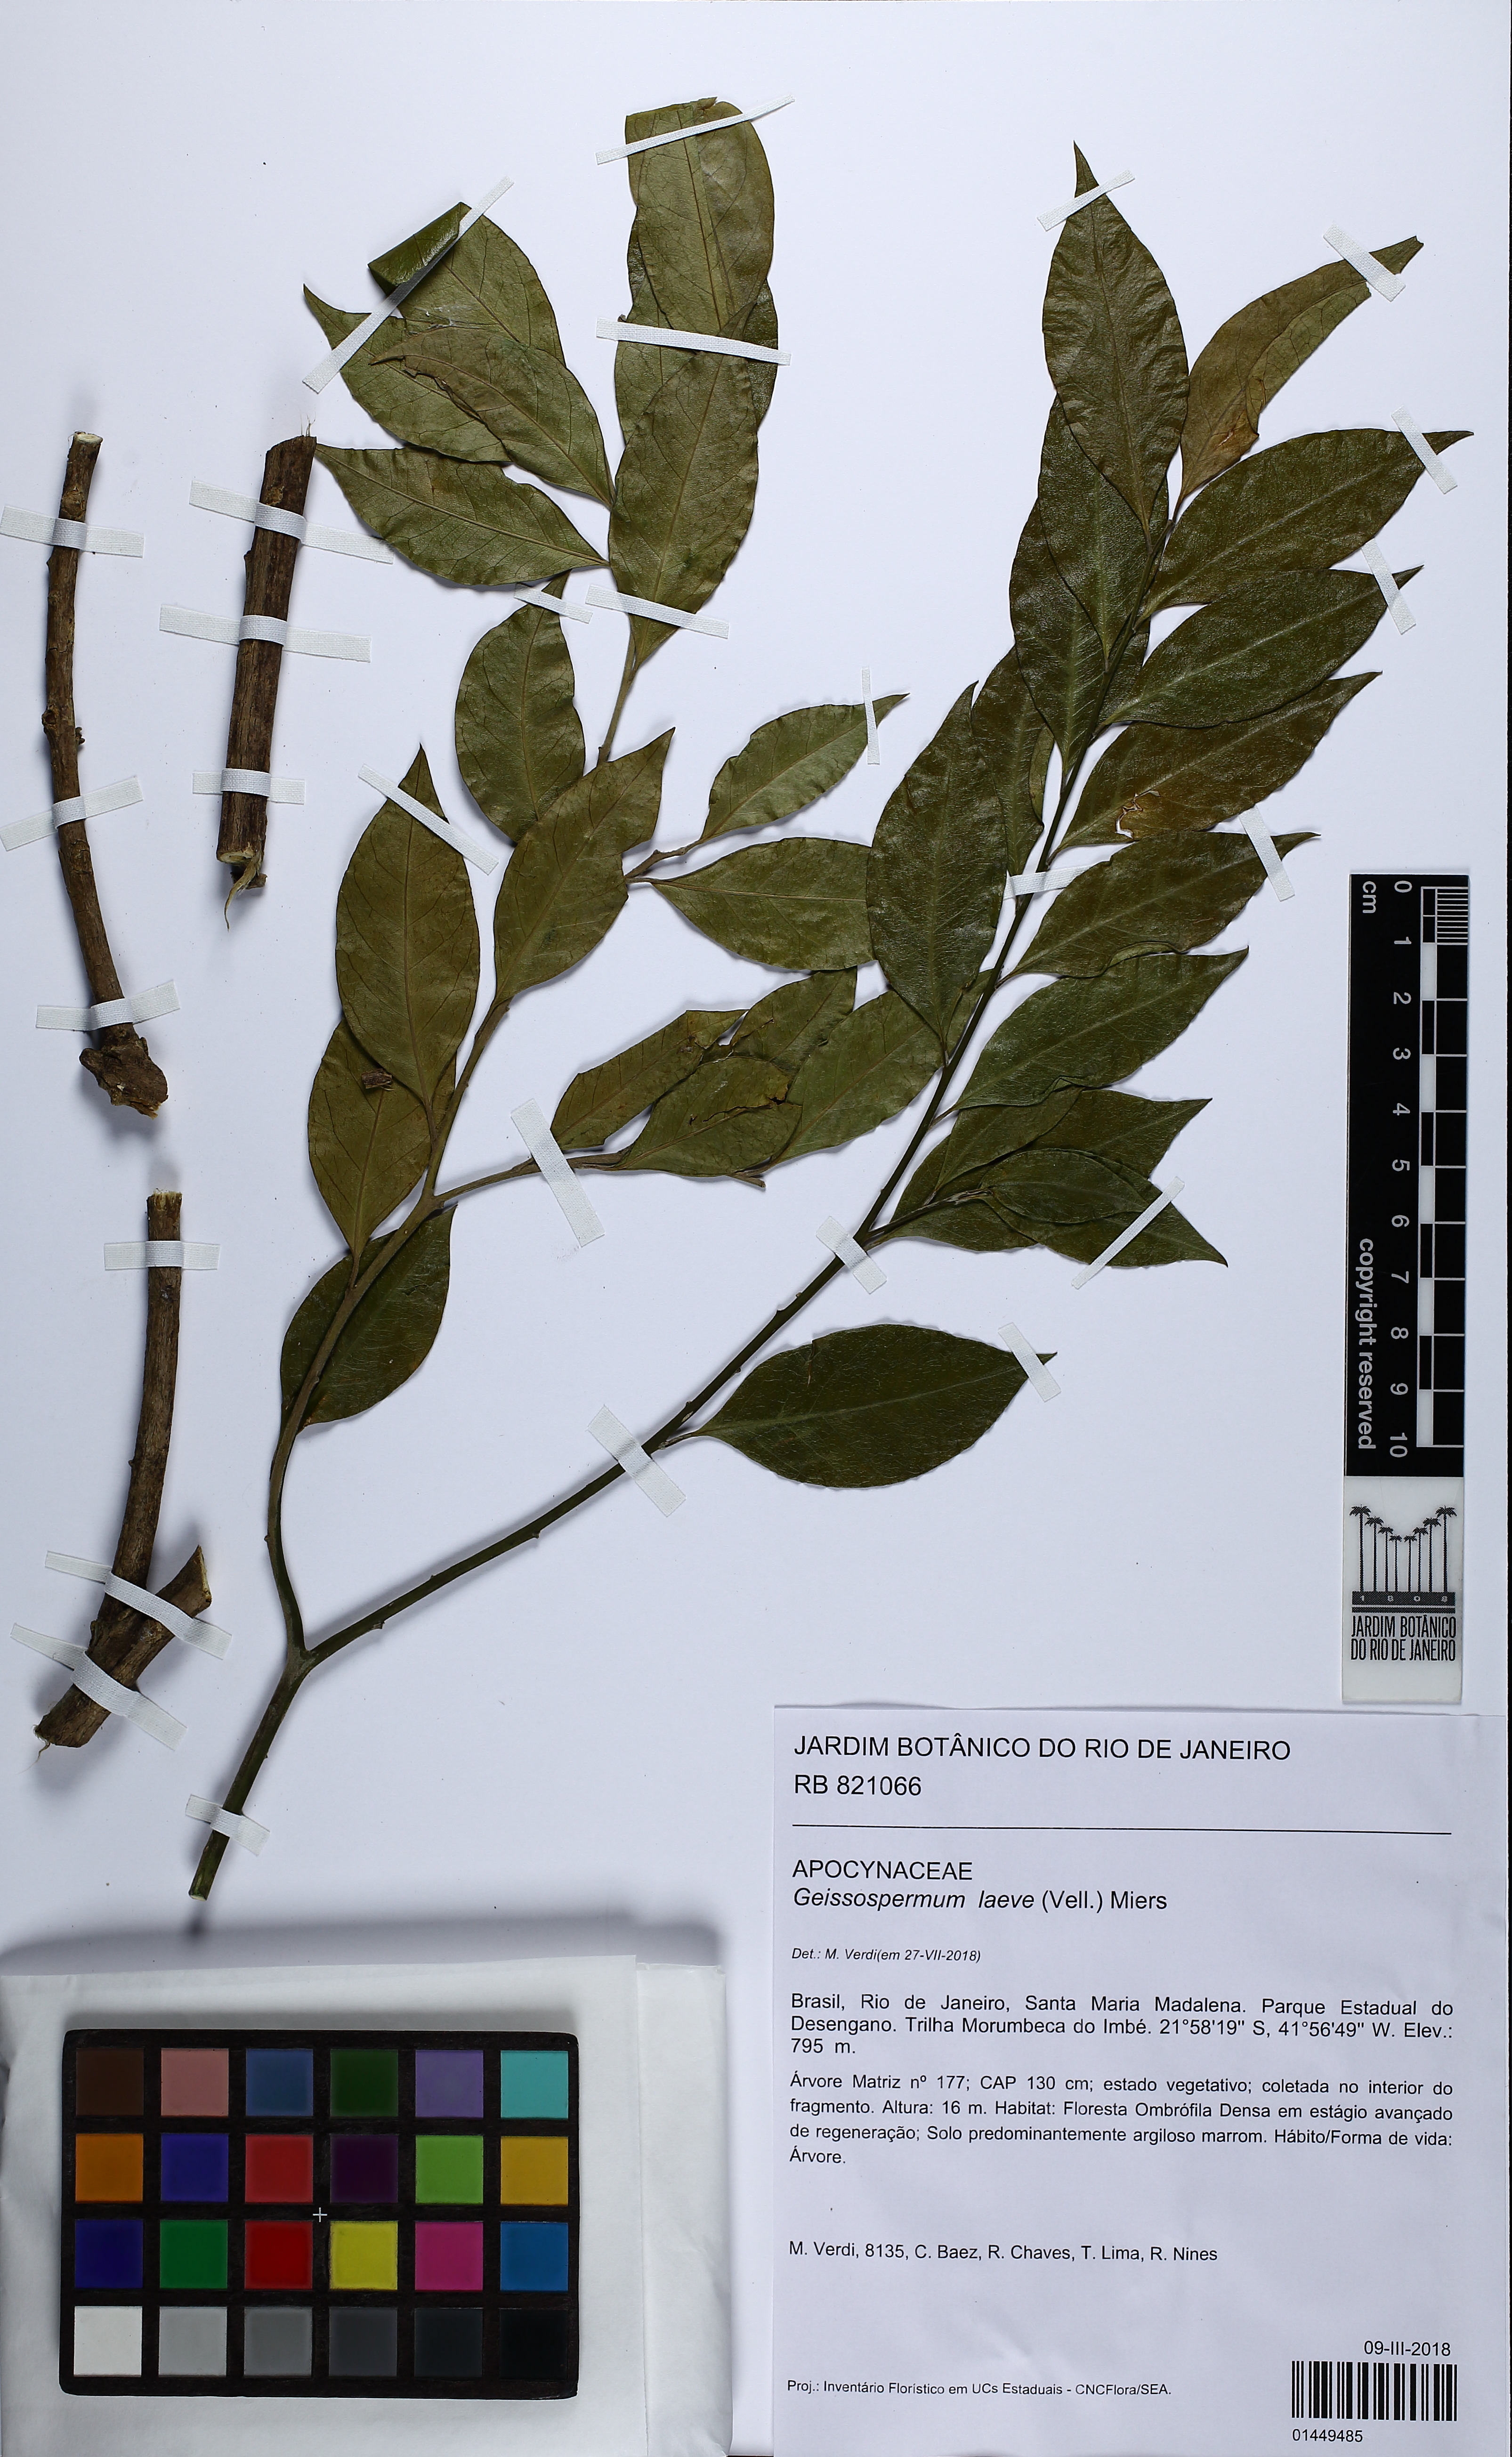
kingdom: Plantae
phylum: Tracheophyta
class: Magnoliopsida
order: Gentianales
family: Apocynaceae
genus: Geissospermum
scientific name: Geissospermum laeve
